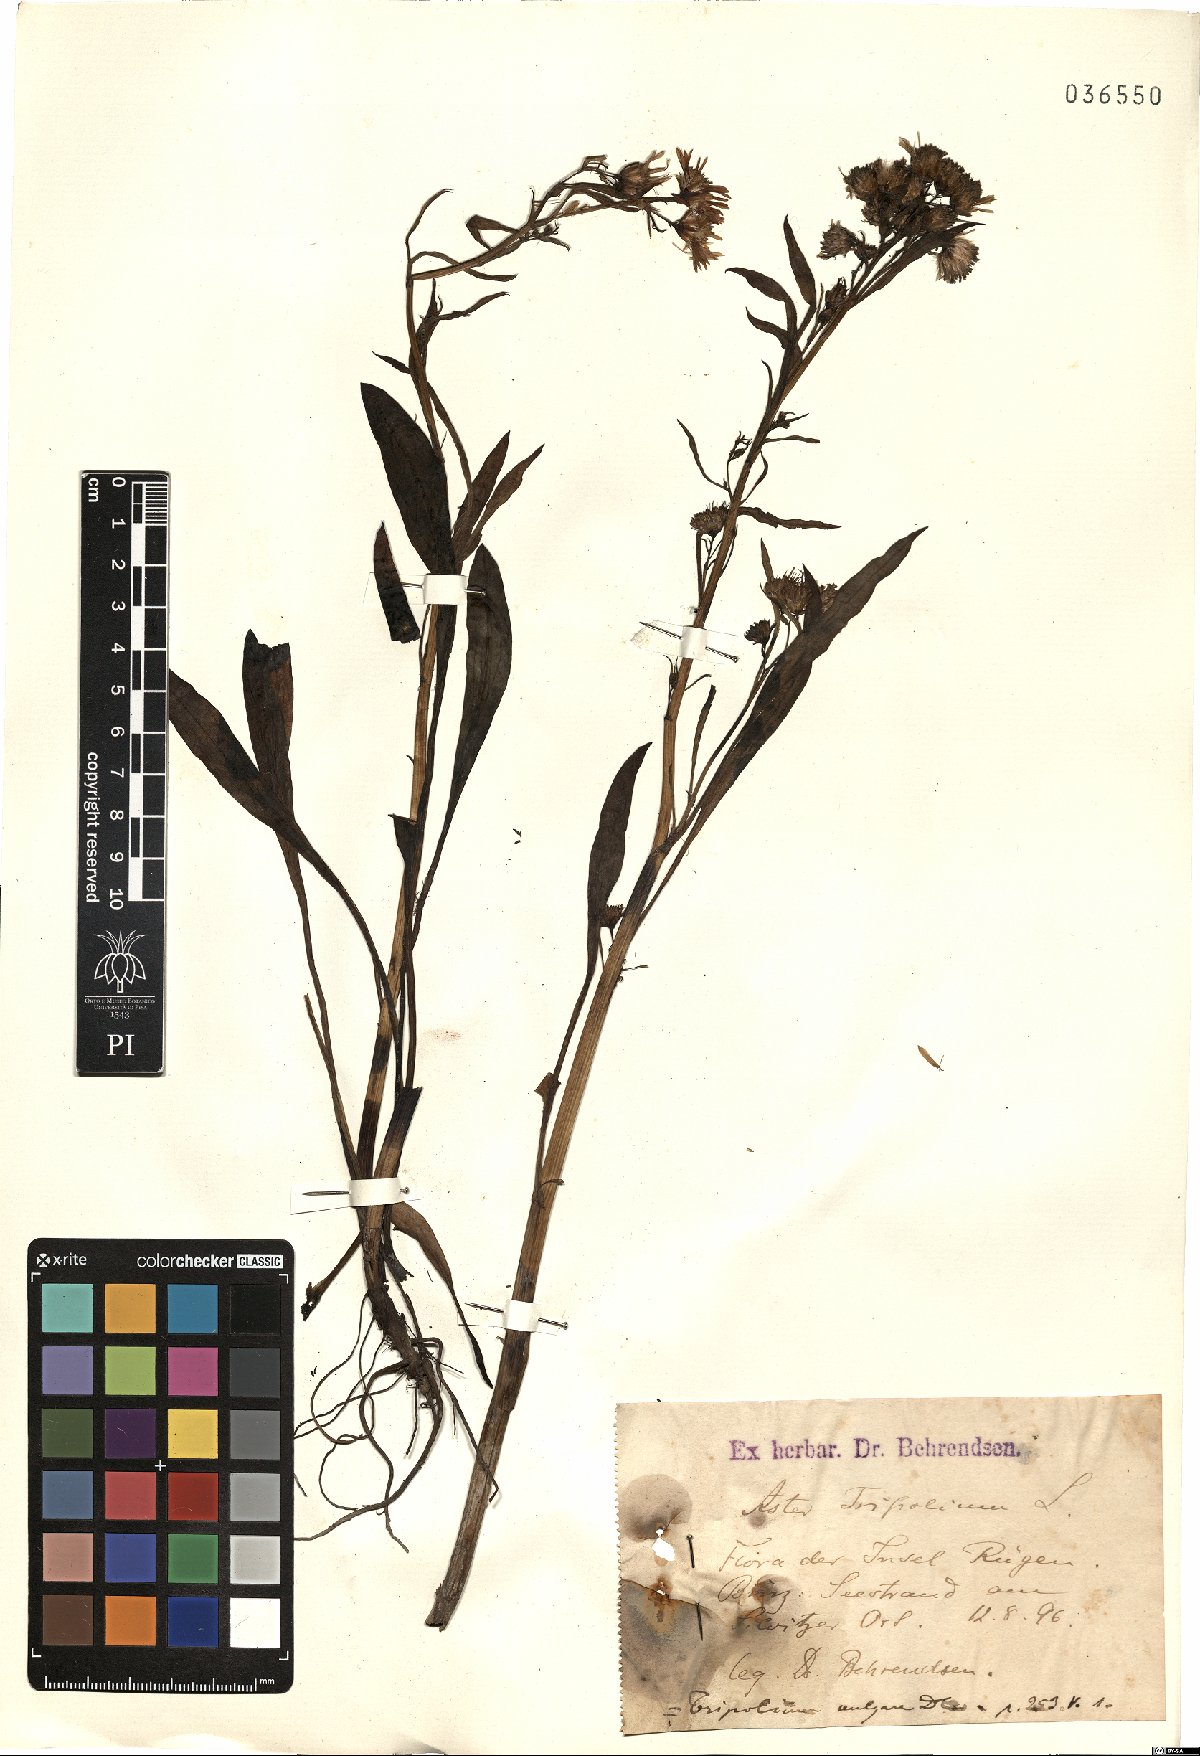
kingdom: Plantae
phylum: Tracheophyta
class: Magnoliopsida
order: Asterales
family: Asteraceae
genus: Tripolium
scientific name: Tripolium pannonicum
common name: Sea aster
